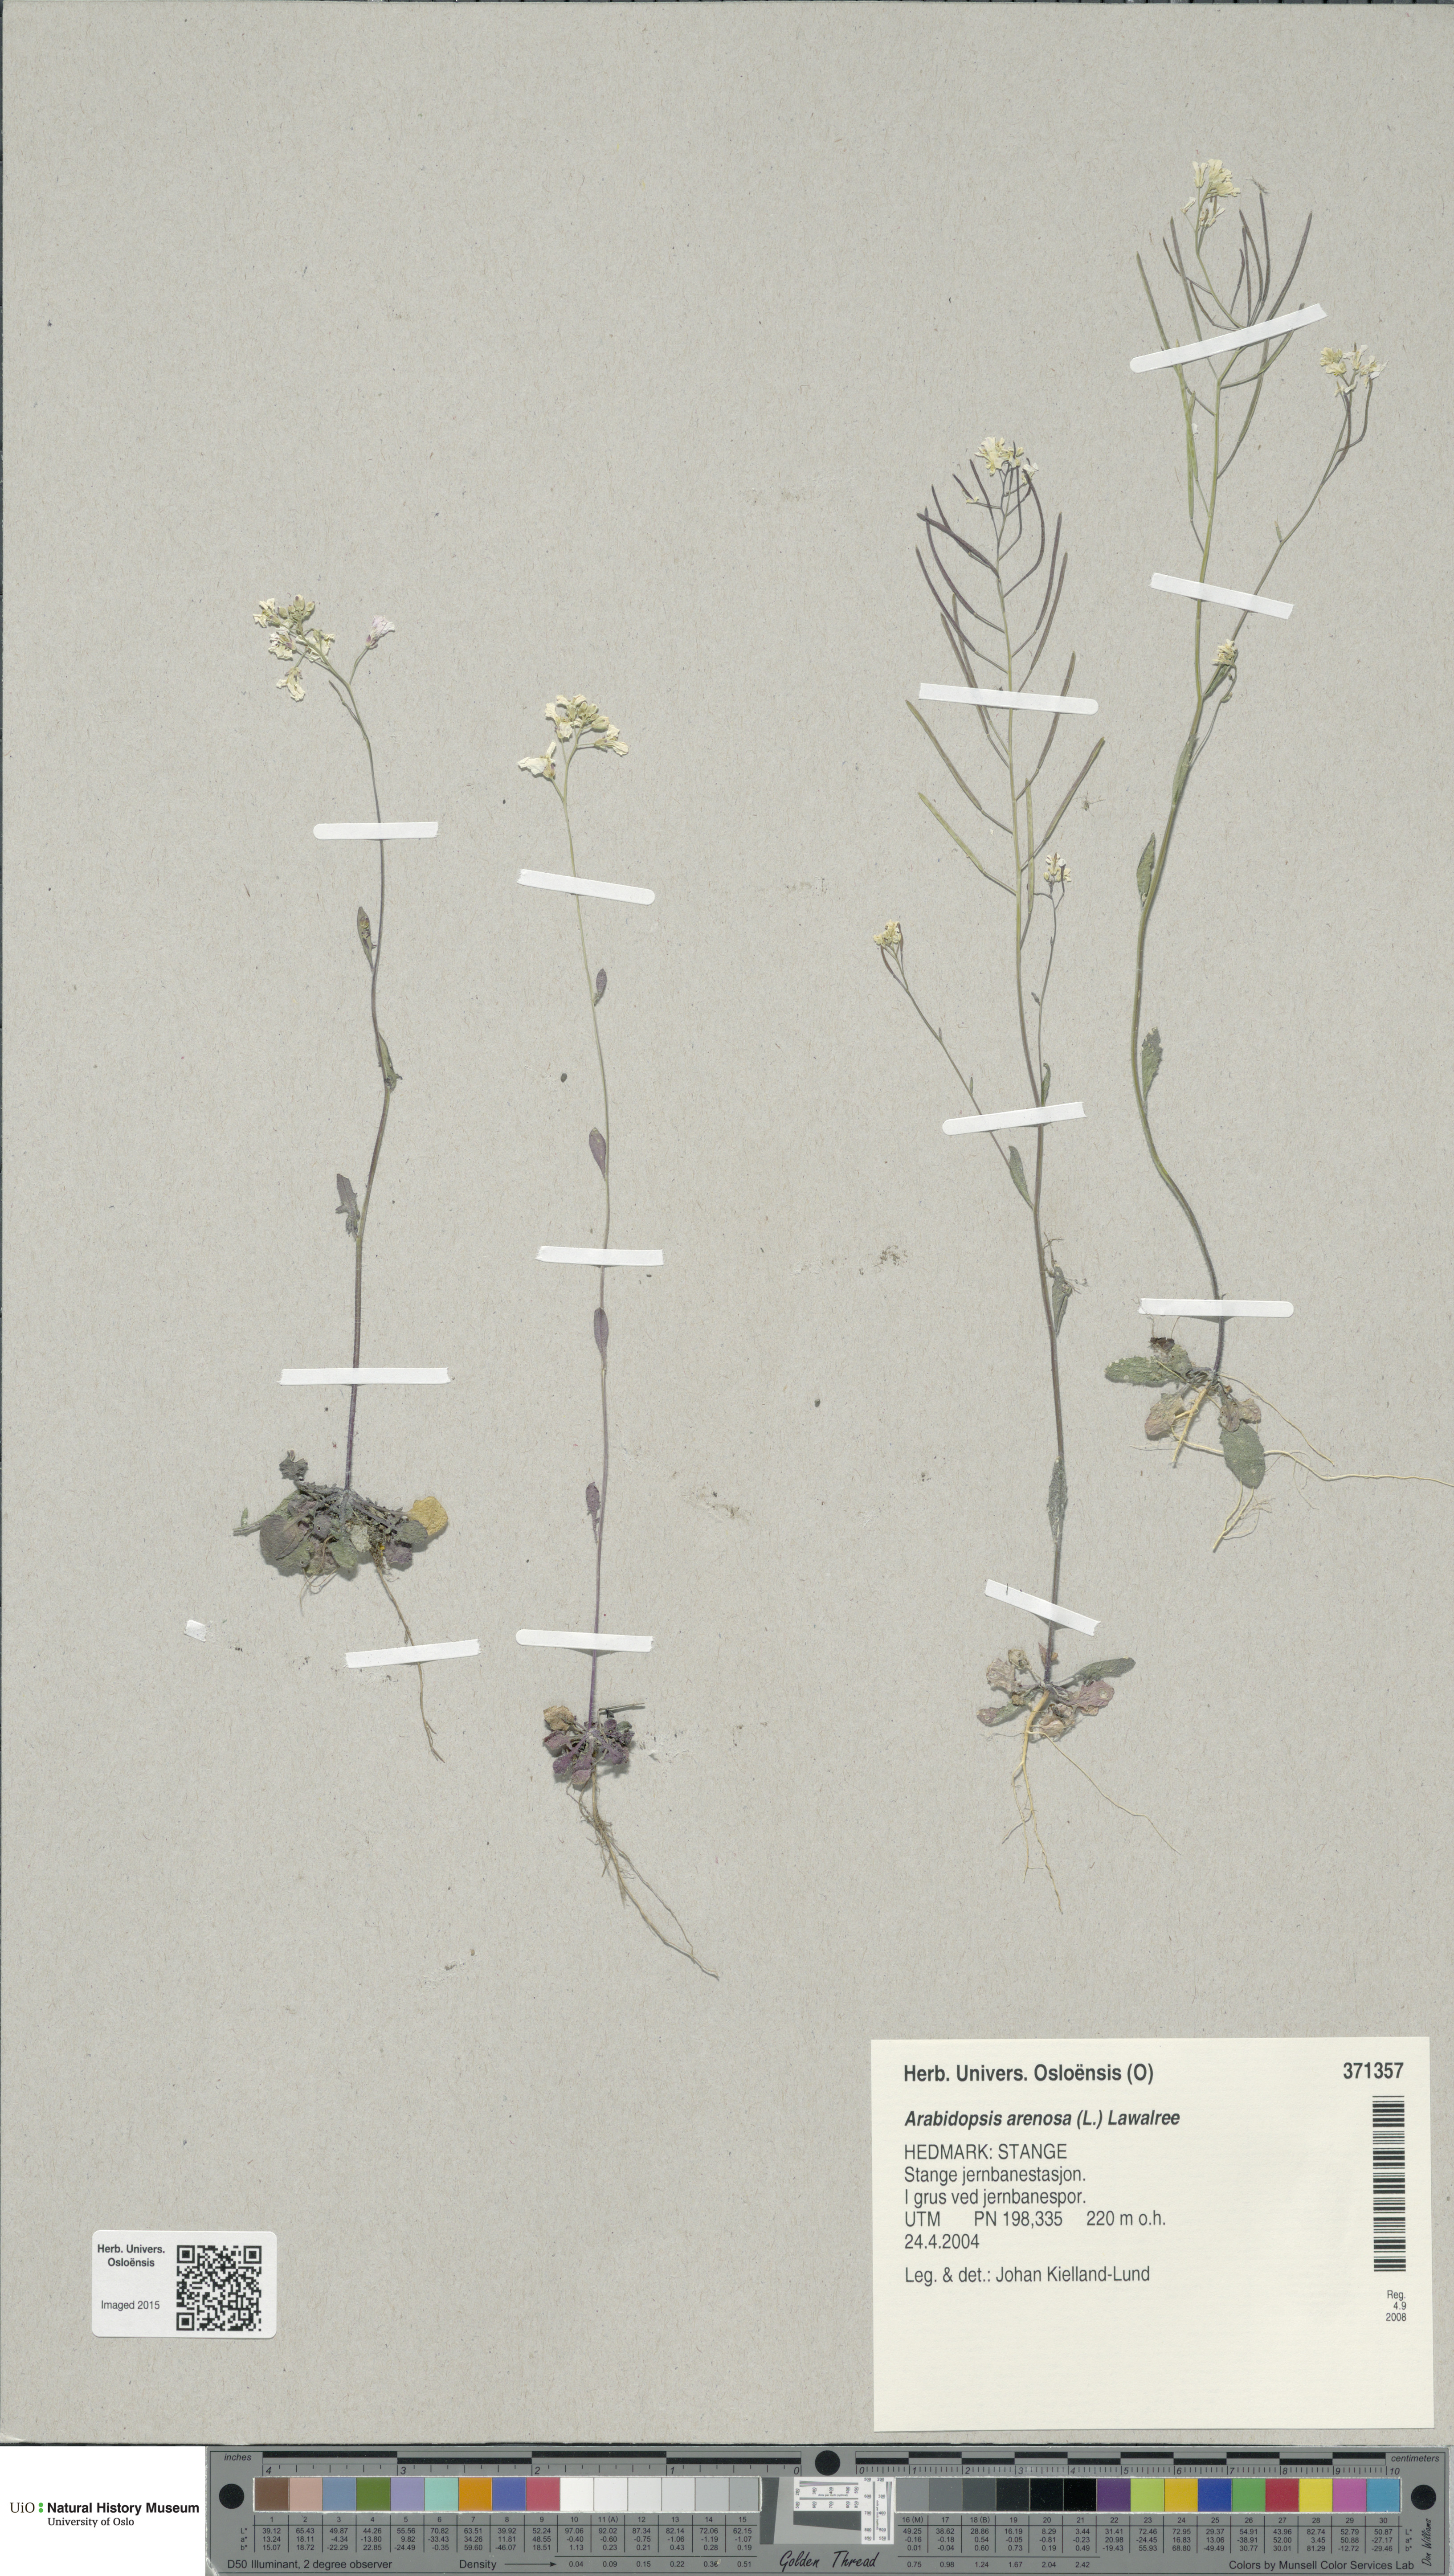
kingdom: Plantae
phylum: Tracheophyta
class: Magnoliopsida
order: Brassicales
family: Brassicaceae
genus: Arabidopsis
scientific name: Arabidopsis arenosa
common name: Sand rock-cress
